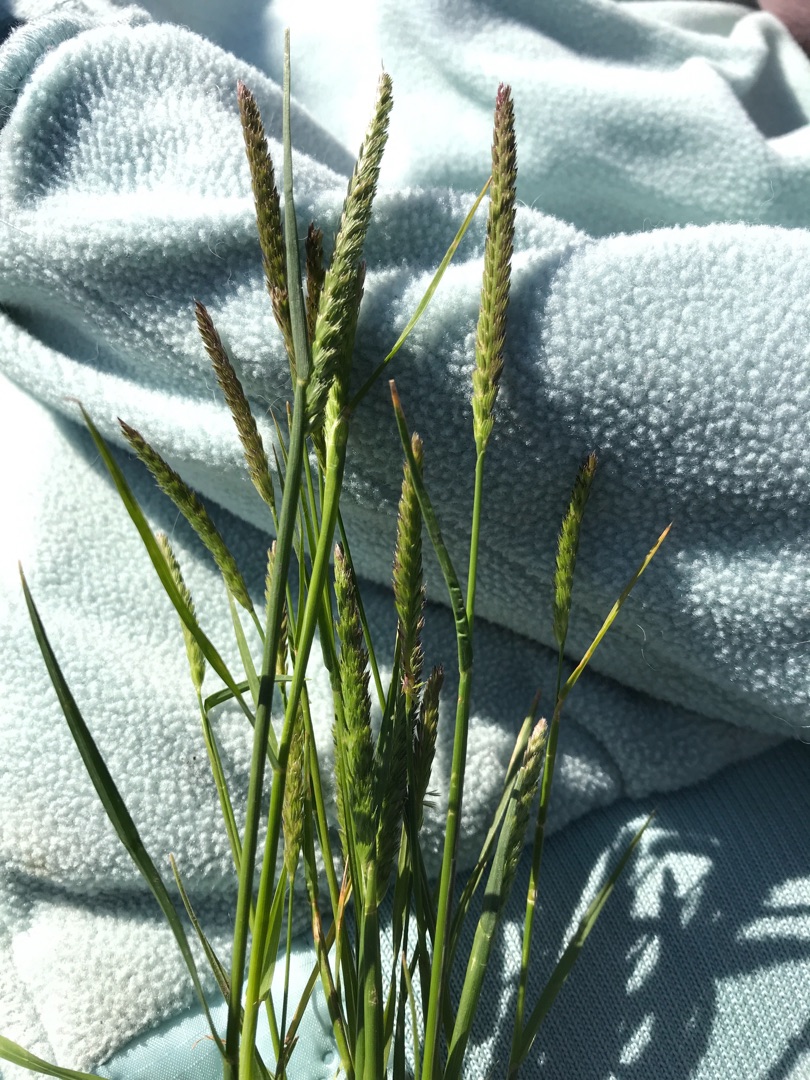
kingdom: Plantae
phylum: Tracheophyta
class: Liliopsida
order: Poales
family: Poaceae
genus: Cynosurus
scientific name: Cynosurus cristatus
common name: Kamgræs
